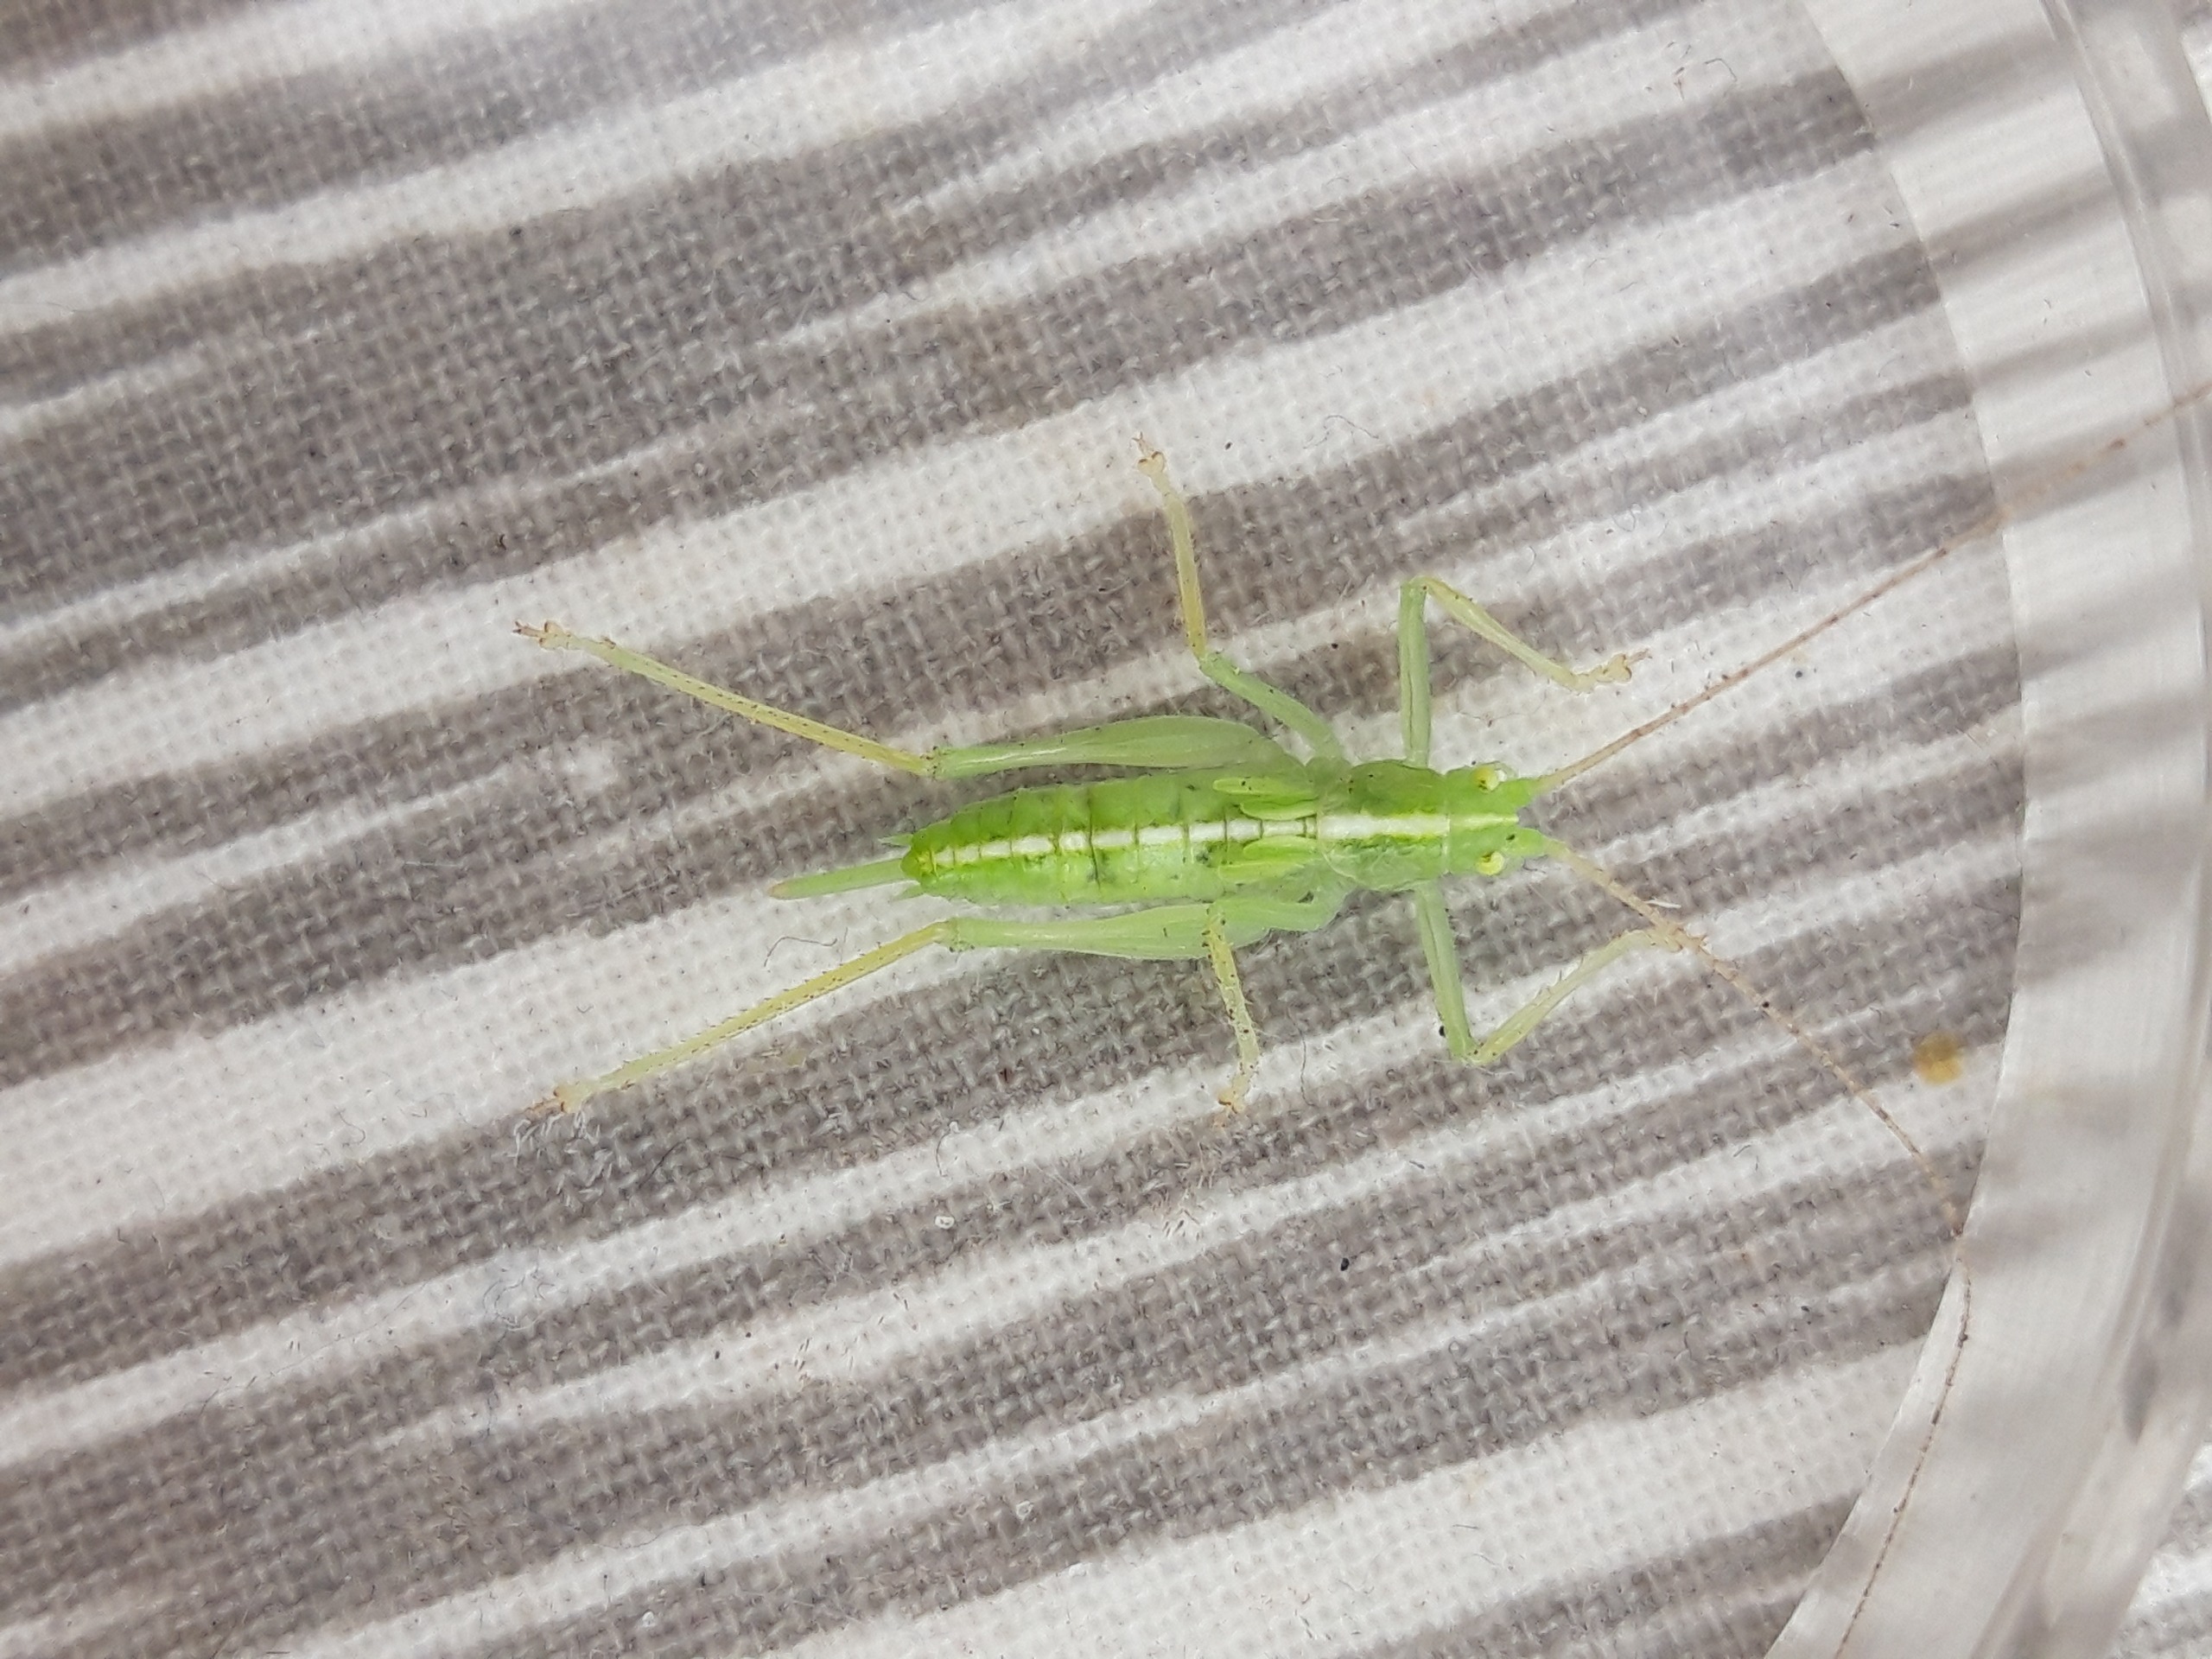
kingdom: Animalia
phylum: Arthropoda
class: Insecta
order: Orthoptera
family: Tettigoniidae
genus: Meconema
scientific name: Meconema thalassinum
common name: Egegræshoppe
